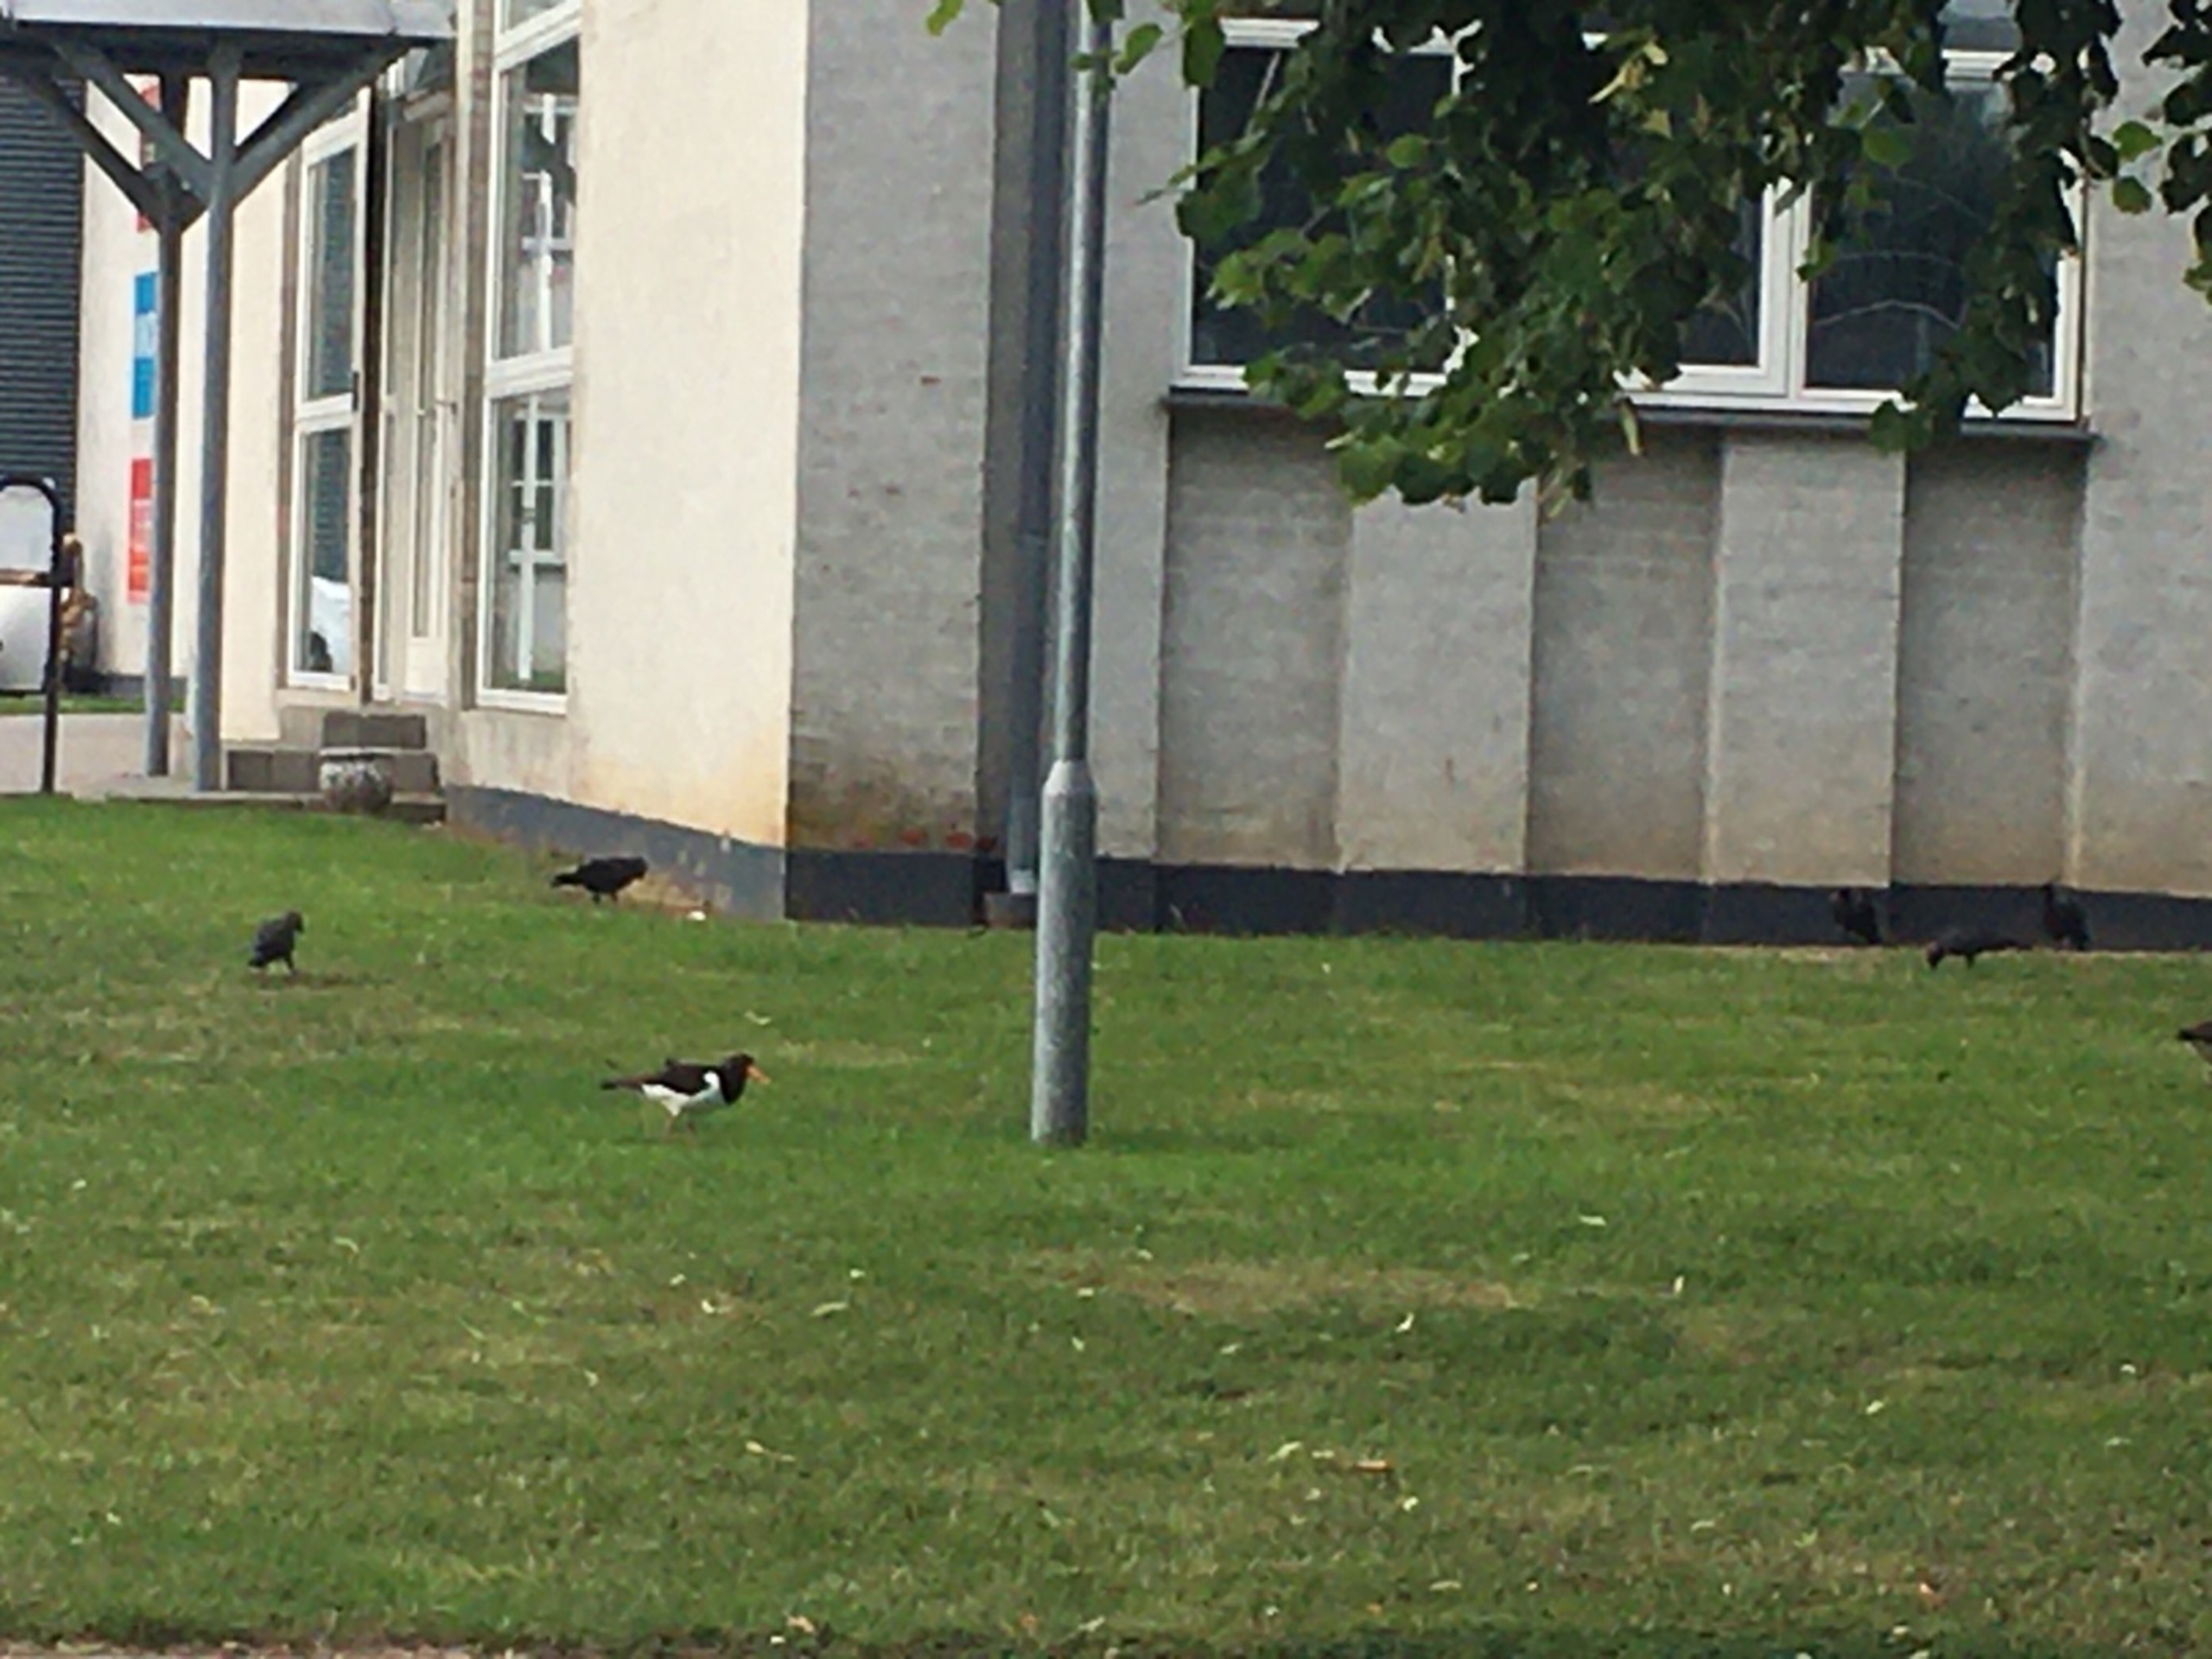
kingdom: Animalia
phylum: Chordata
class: Aves
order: Charadriiformes
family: Haematopodidae
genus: Haematopus
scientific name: Haematopus ostralegus
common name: Strandskade
